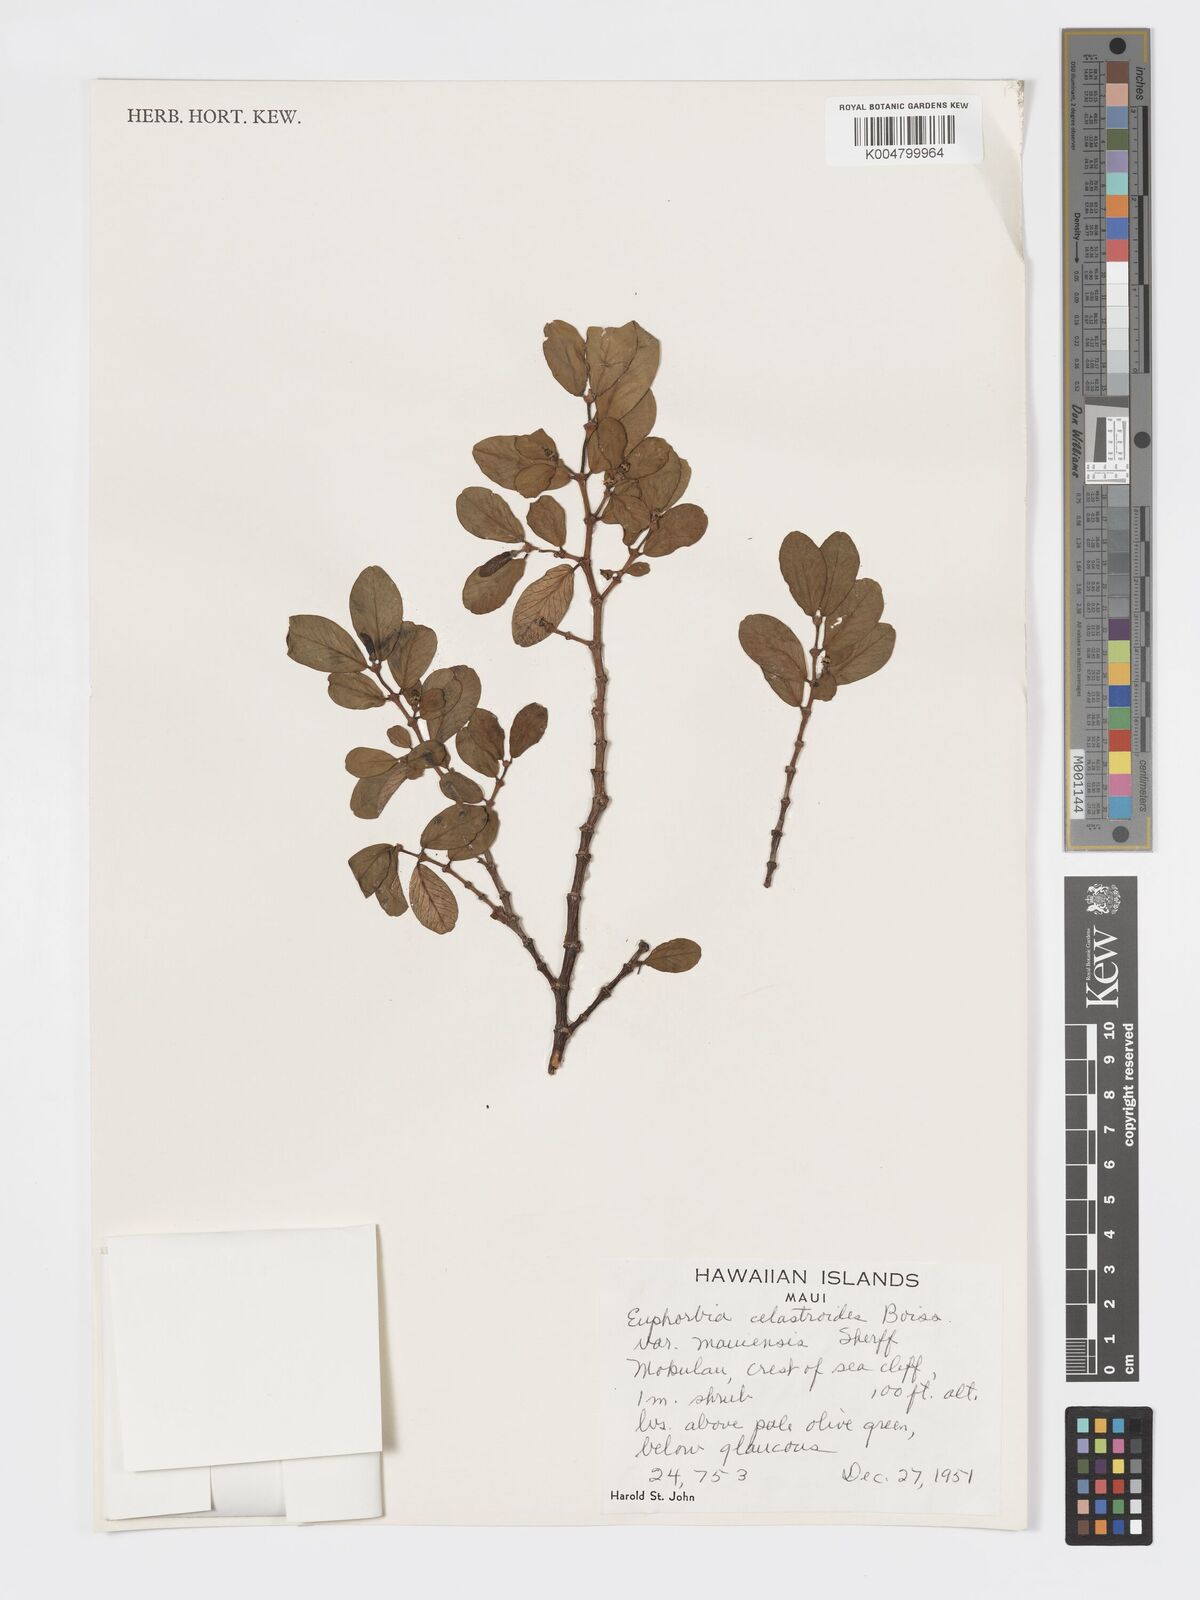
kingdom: Plantae
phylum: Tracheophyta
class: Magnoliopsida
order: Malpighiales
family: Euphorbiaceae
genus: Euphorbia
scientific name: Euphorbia celastroides
